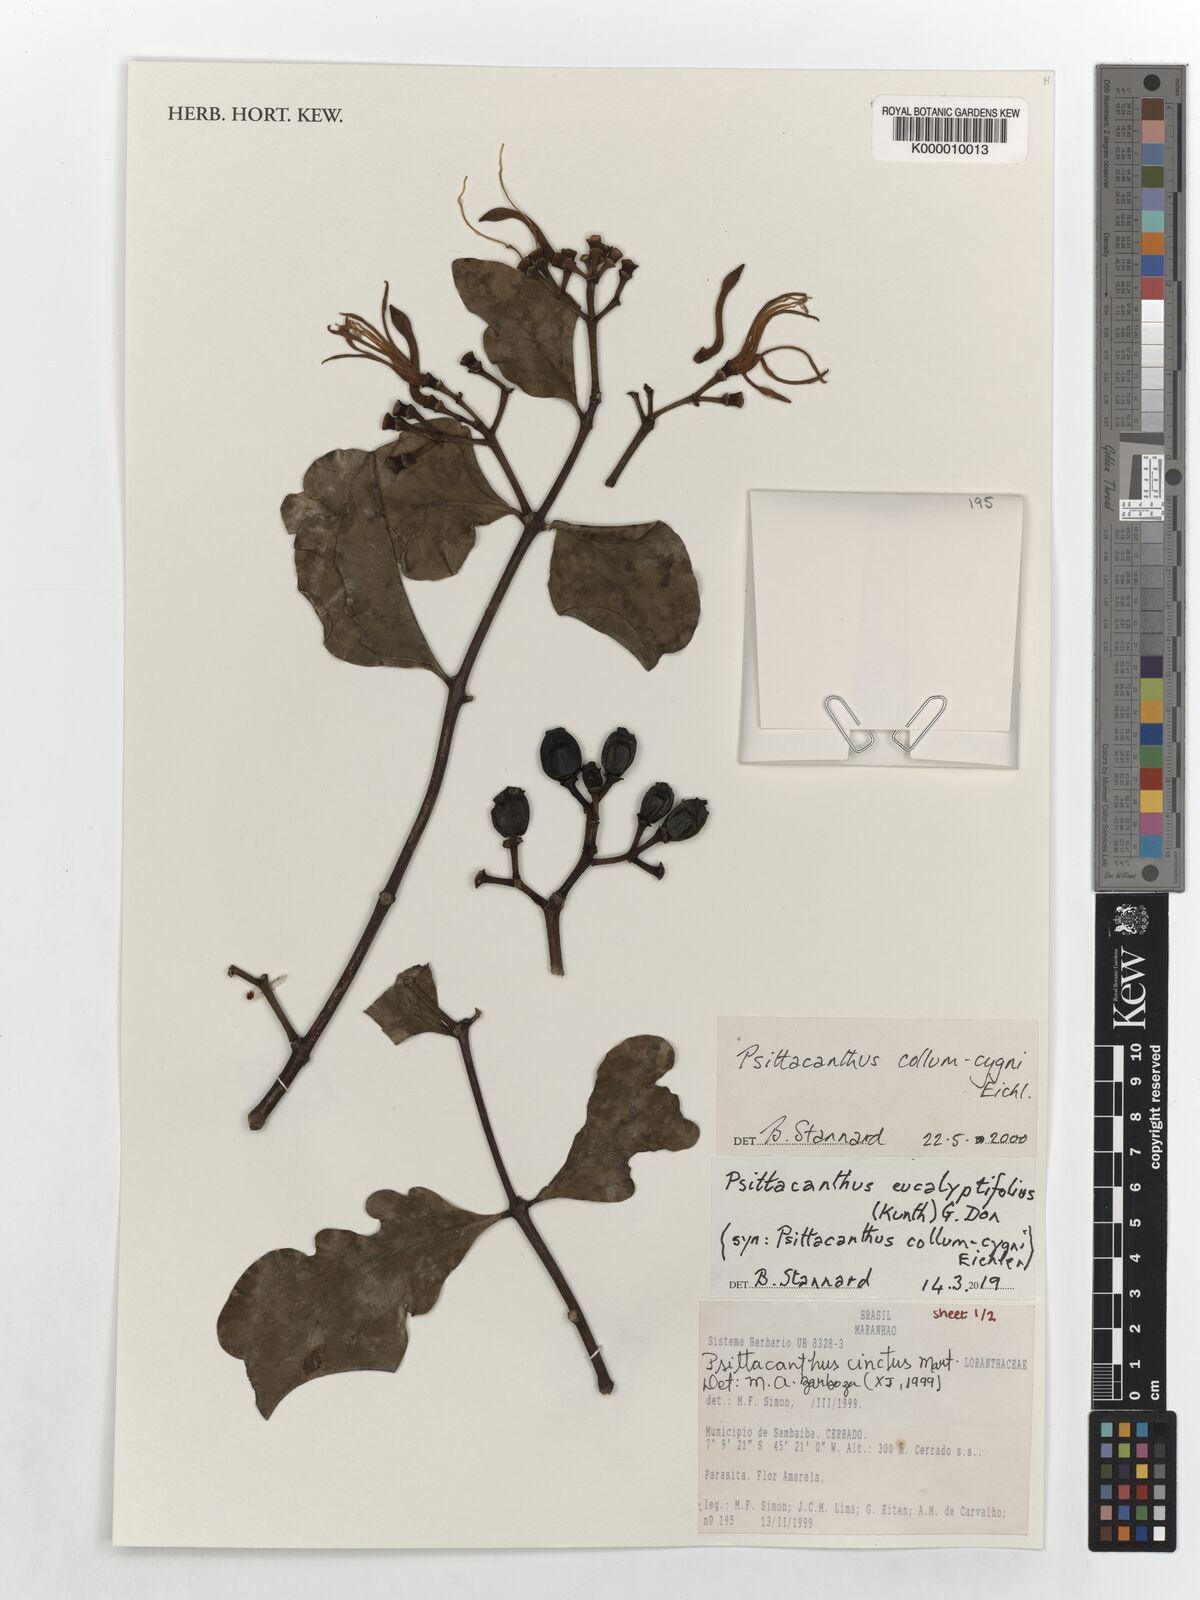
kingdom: Plantae
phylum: Tracheophyta
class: Magnoliopsida
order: Santalales
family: Loranthaceae
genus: Psittacanthus
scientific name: Psittacanthus eucalyptifolius
